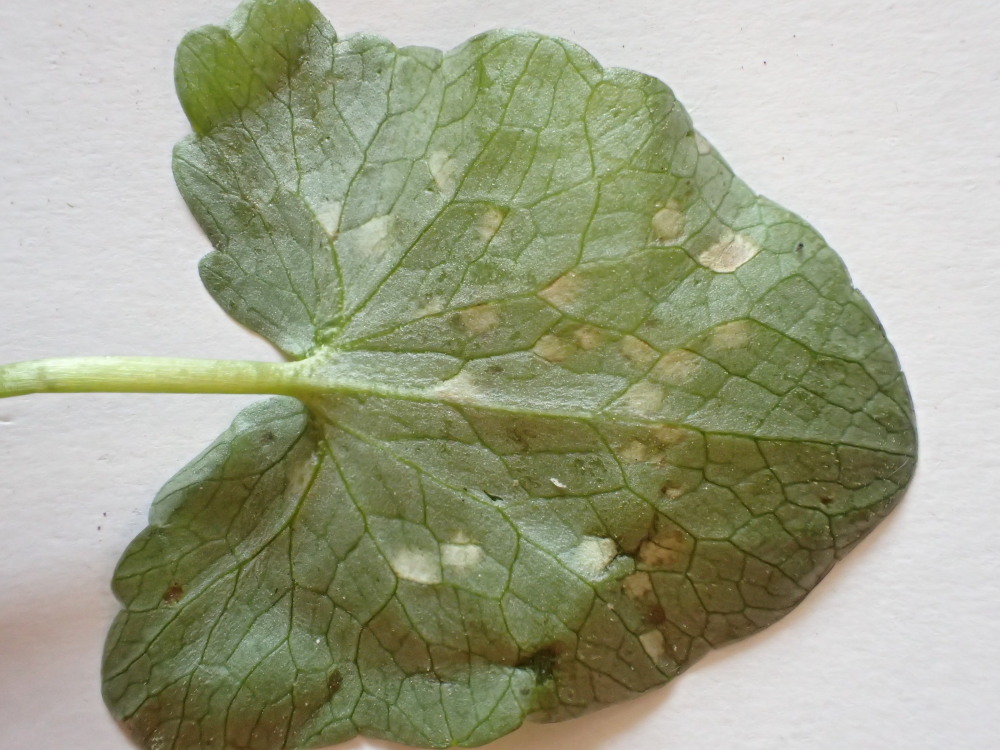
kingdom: Fungi
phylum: Basidiomycota
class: Ustilaginomycetes
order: Urocystidales
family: Urocystidaceae
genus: Urocystis
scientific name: Urocystis ficariae
